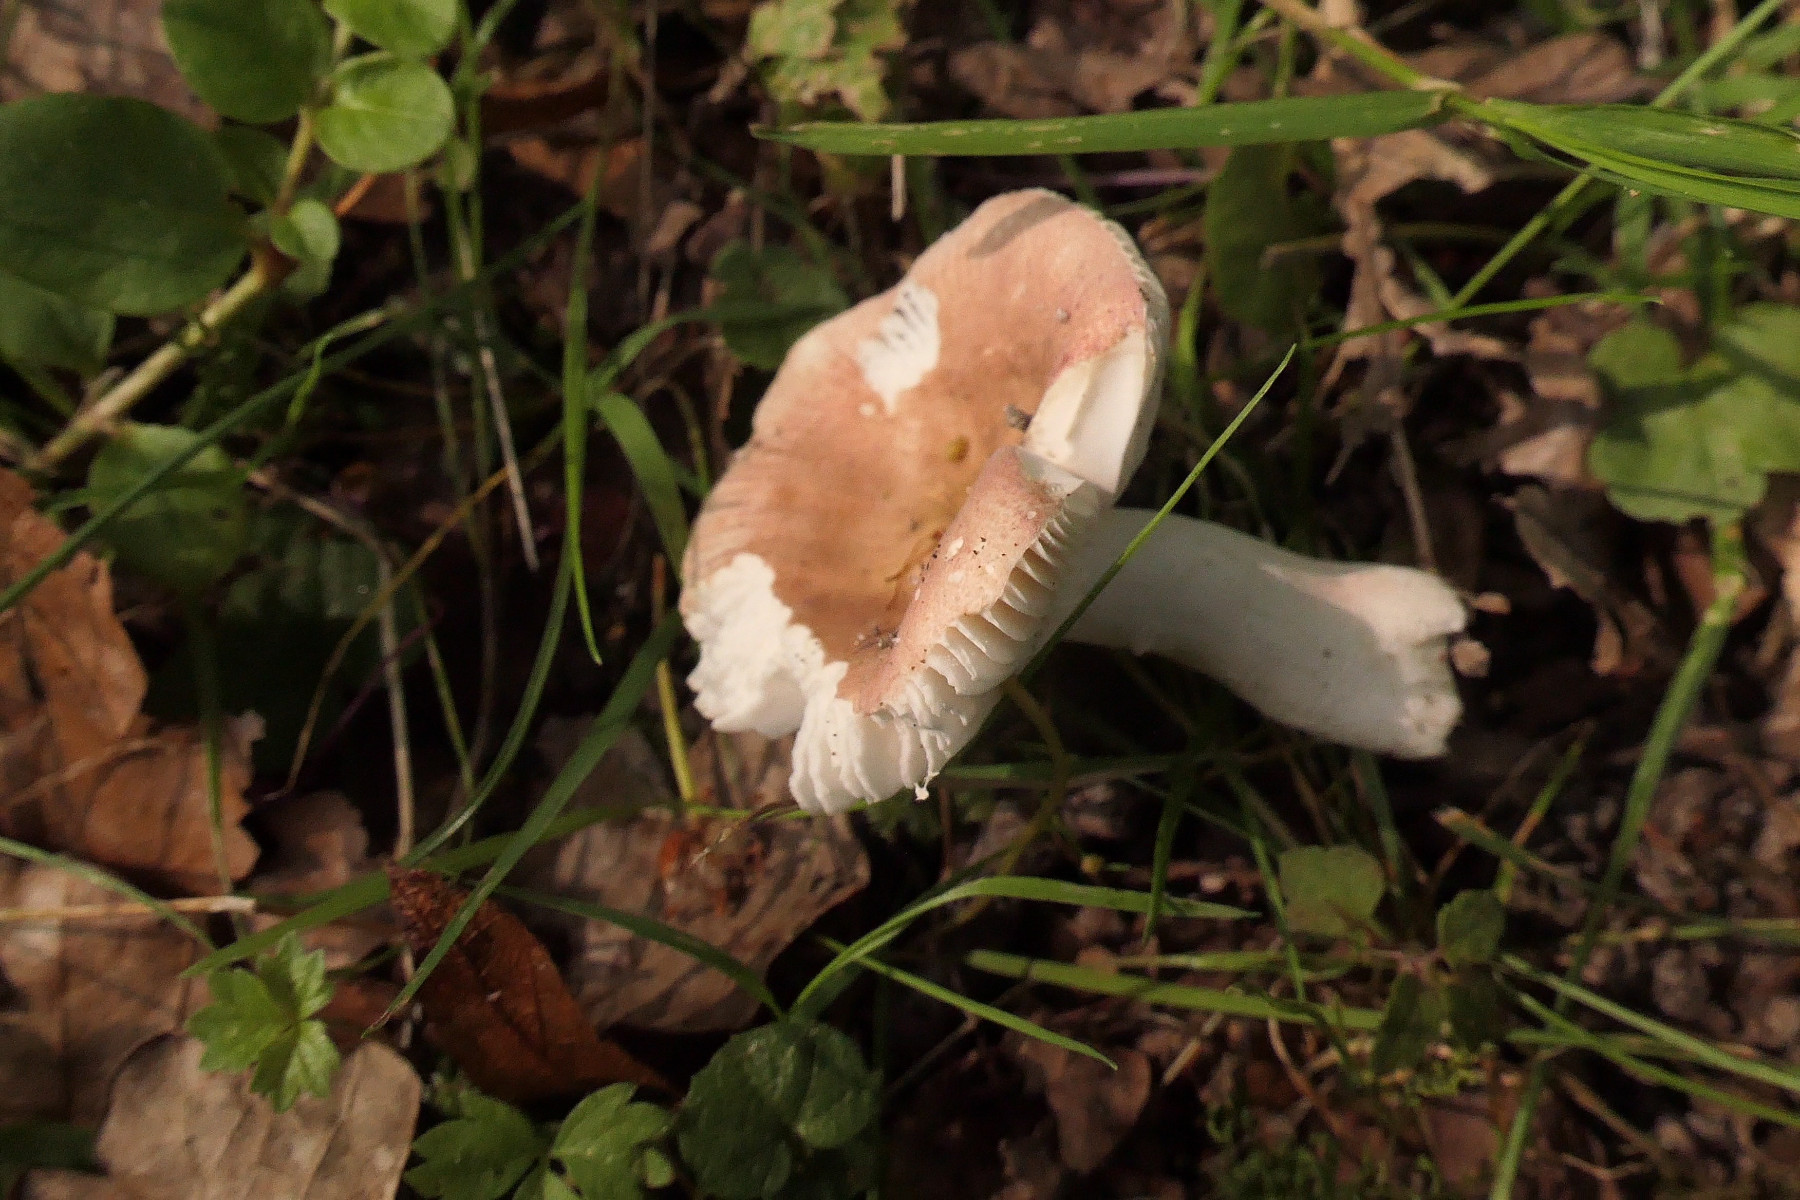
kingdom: Fungi
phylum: Basidiomycota
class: Agaricomycetes
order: Russulales
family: Russulaceae
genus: Russula
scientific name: Russula lilacea
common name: lilla skørhat
